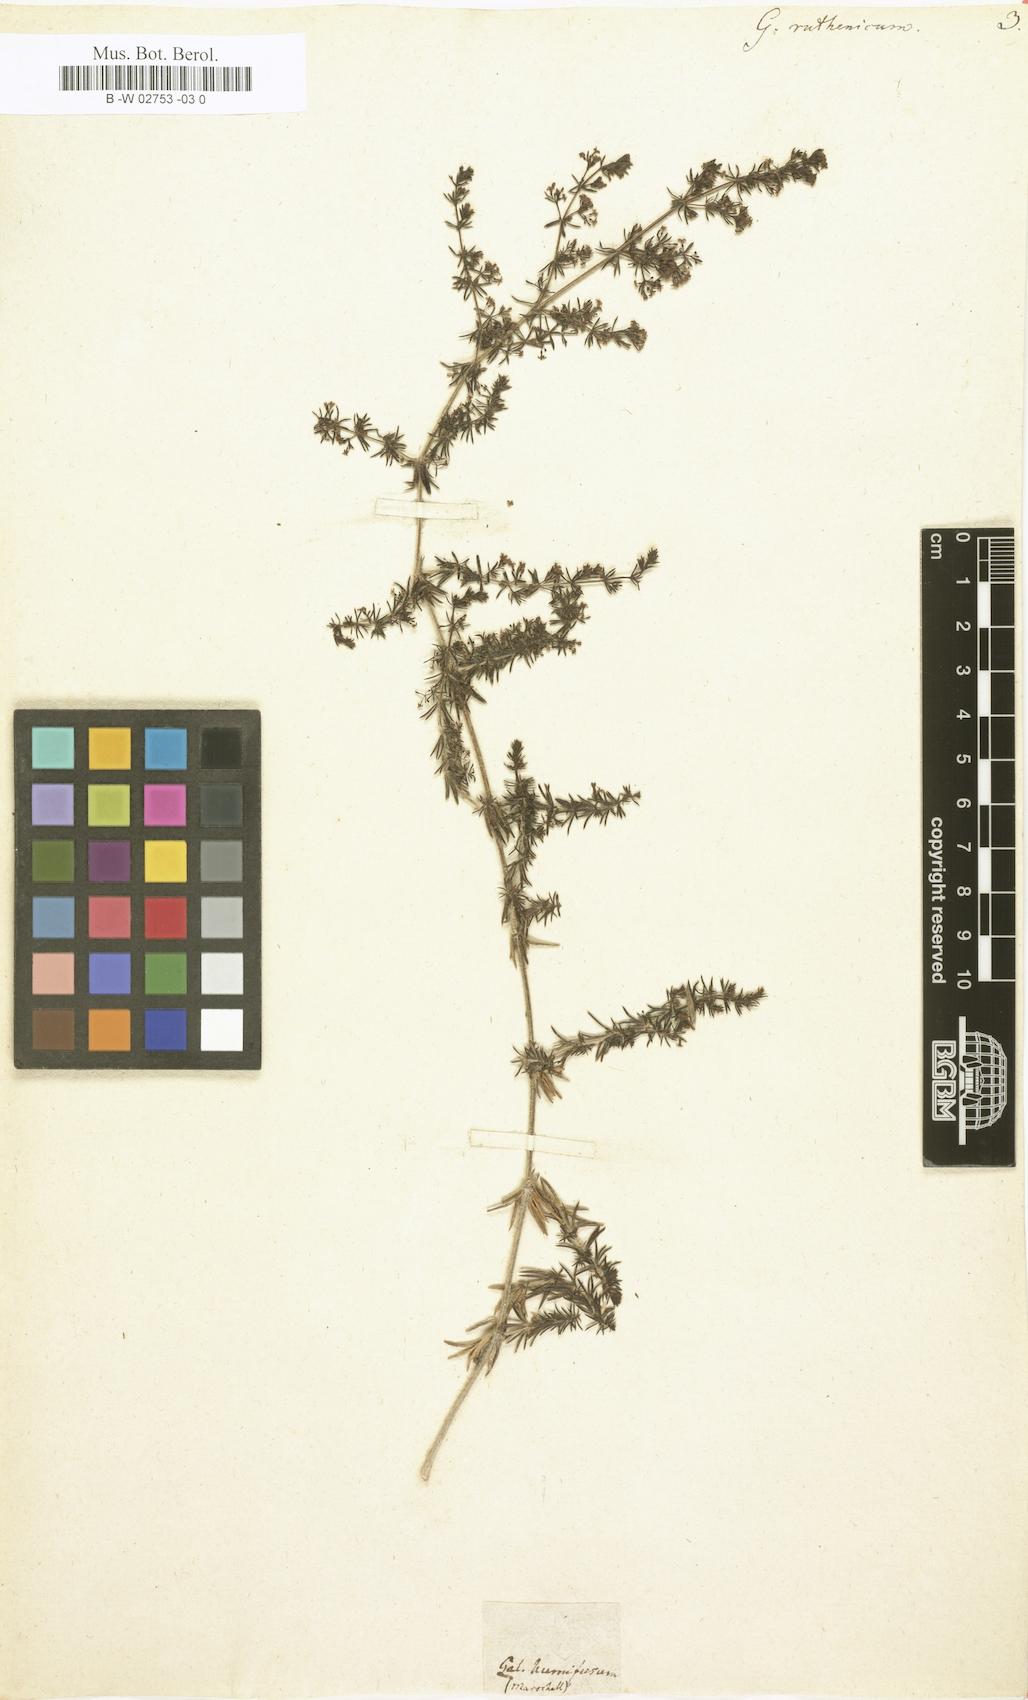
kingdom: Plantae
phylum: Tracheophyta
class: Magnoliopsida
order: Gentianales
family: Rubiaceae
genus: Galium
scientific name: Galium verum
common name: Lady's bedstraw
